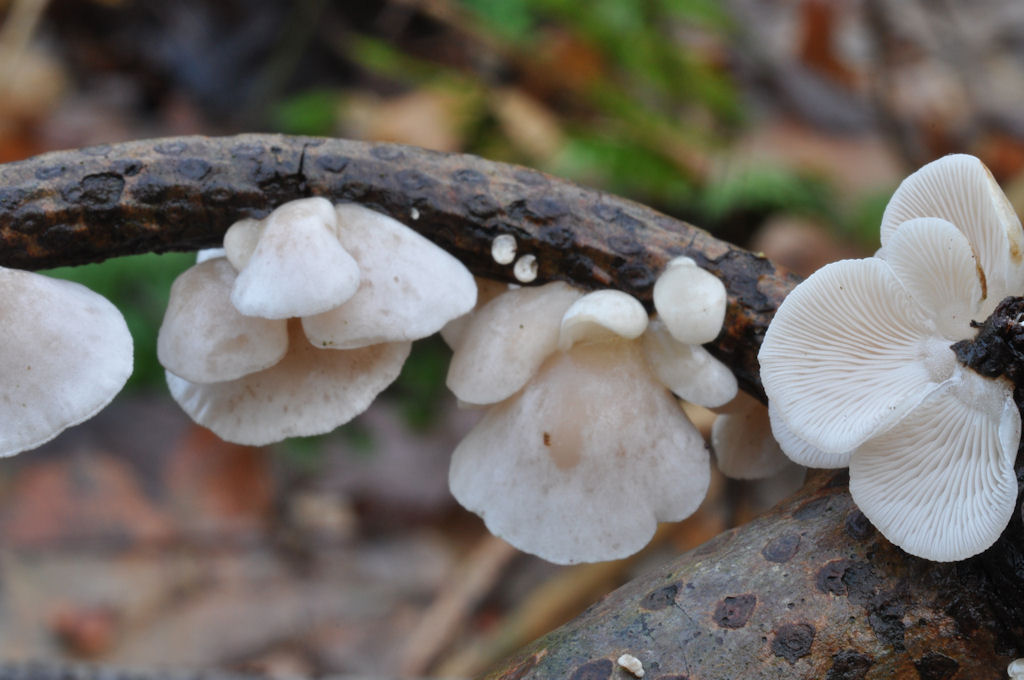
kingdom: Fungi
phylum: Basidiomycota
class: Agaricomycetes
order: Agaricales
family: Mycenaceae
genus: Panellus
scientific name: Panellus mitis
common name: mild epaulethat
